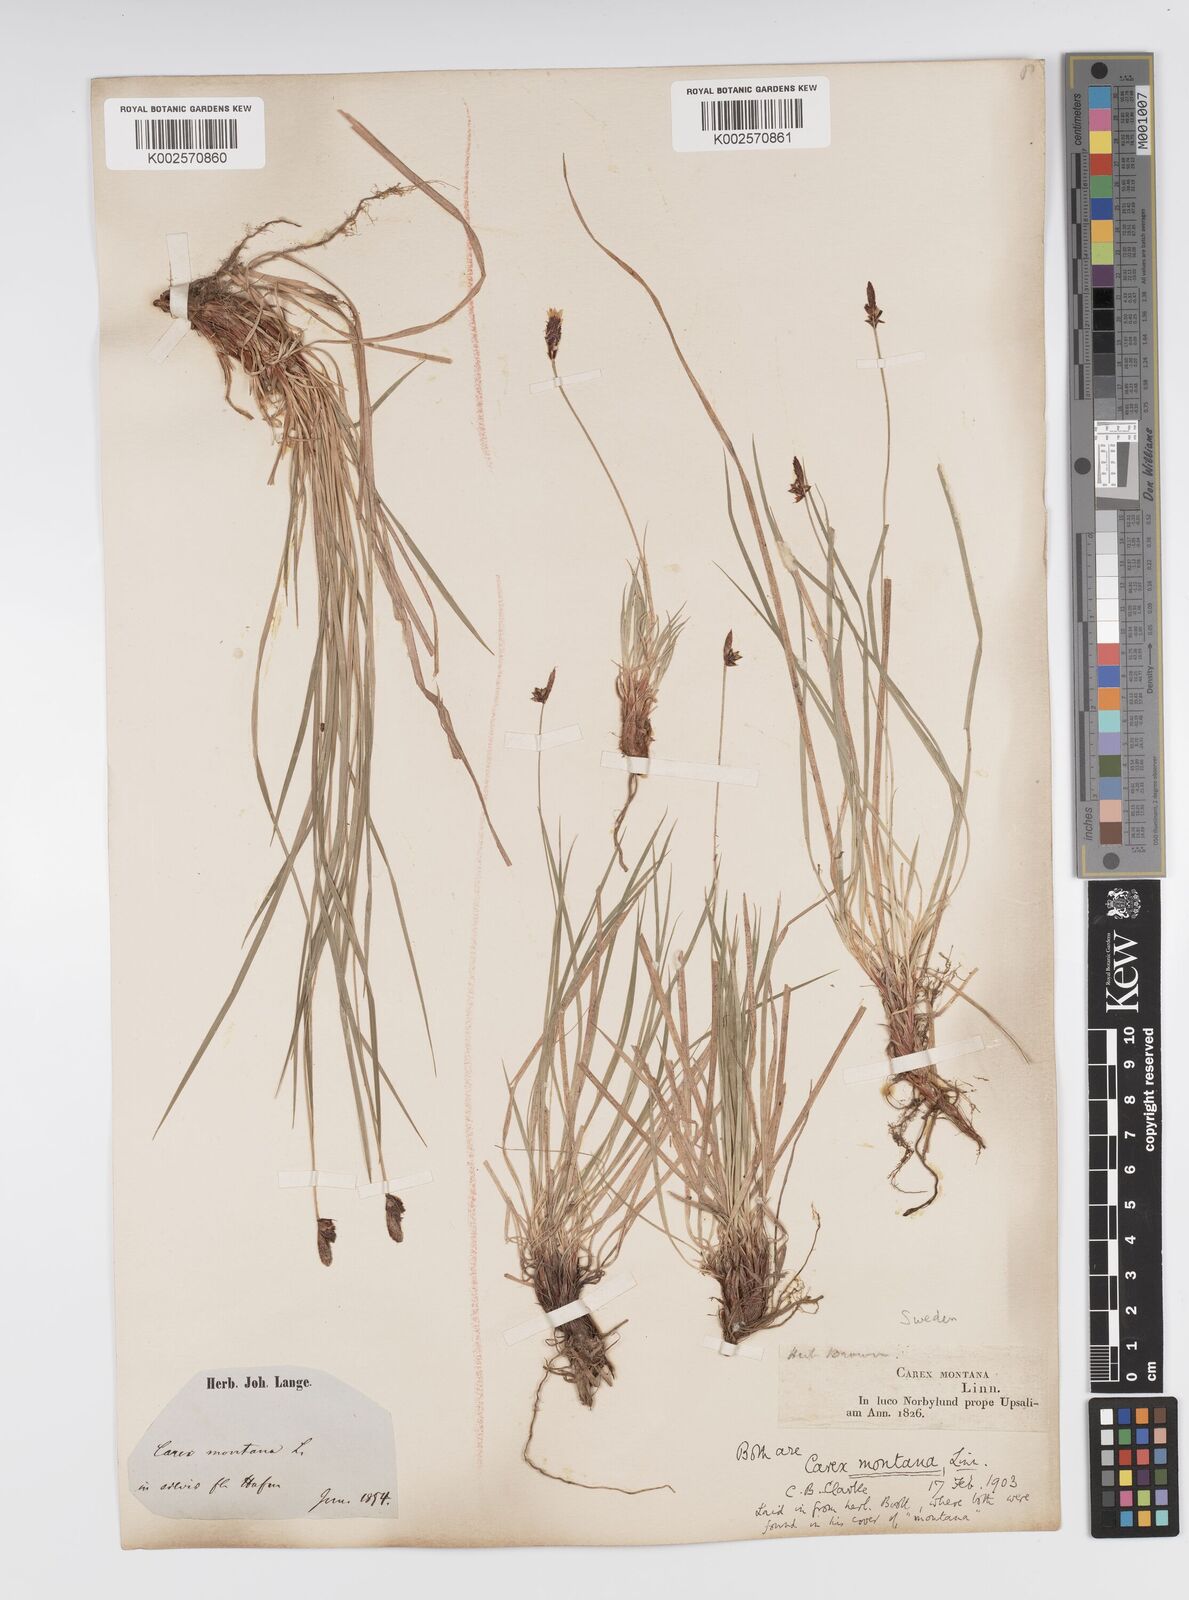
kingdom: Plantae
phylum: Tracheophyta
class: Liliopsida
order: Poales
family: Cyperaceae
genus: Carex
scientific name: Carex montana
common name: Soft-leaved sedge
